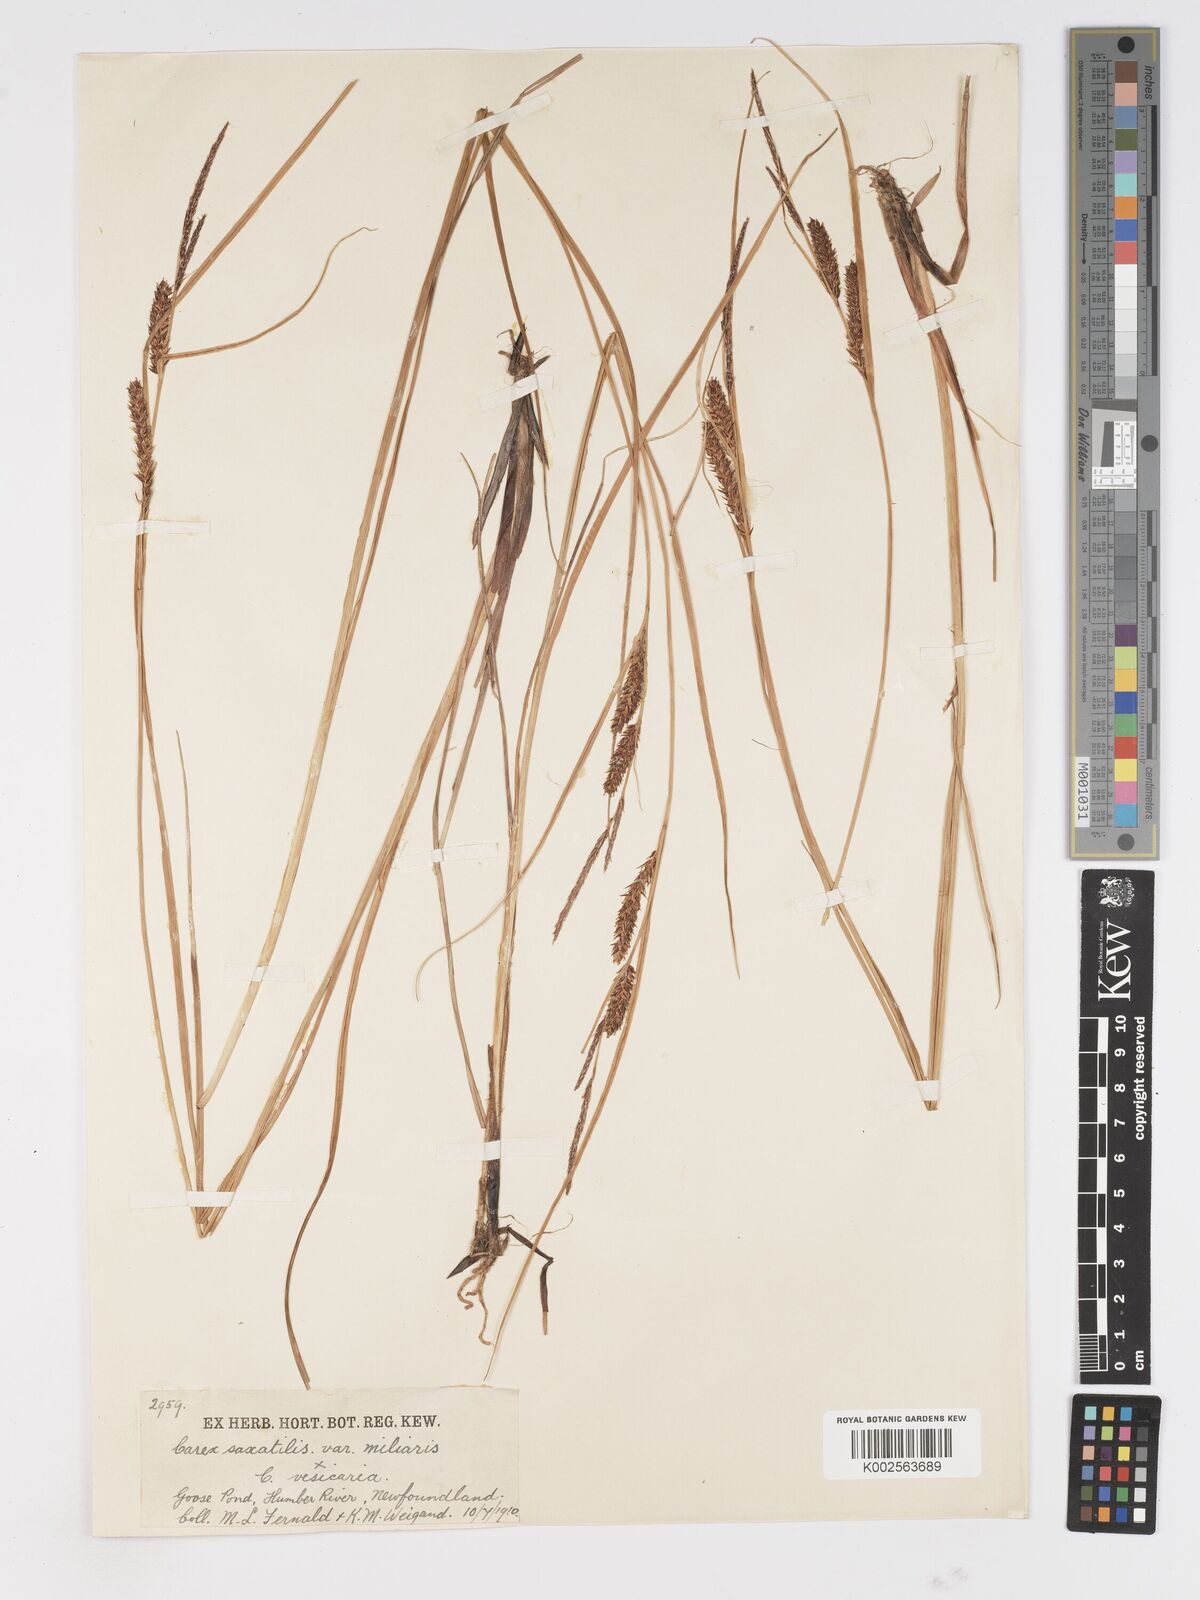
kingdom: Plantae
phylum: Tracheophyta
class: Liliopsida
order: Poales
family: Cyperaceae
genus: Carex
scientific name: Carex mainensis
